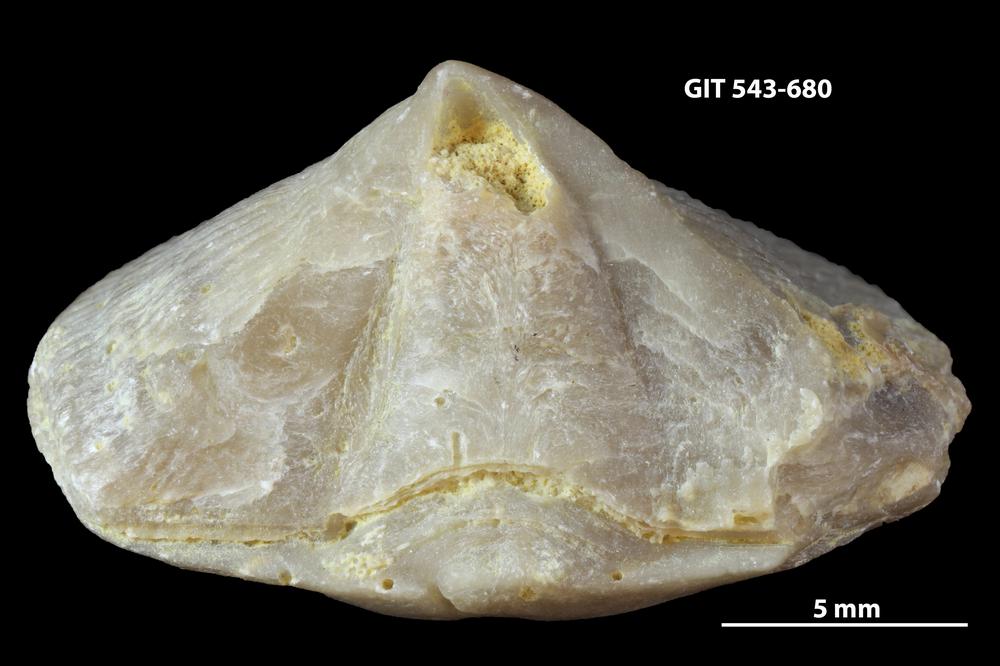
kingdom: Animalia
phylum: Brachiopoda
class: Rhynchonellata
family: Clitambonitidae
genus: Vellamo
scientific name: Vellamo oandoensis
